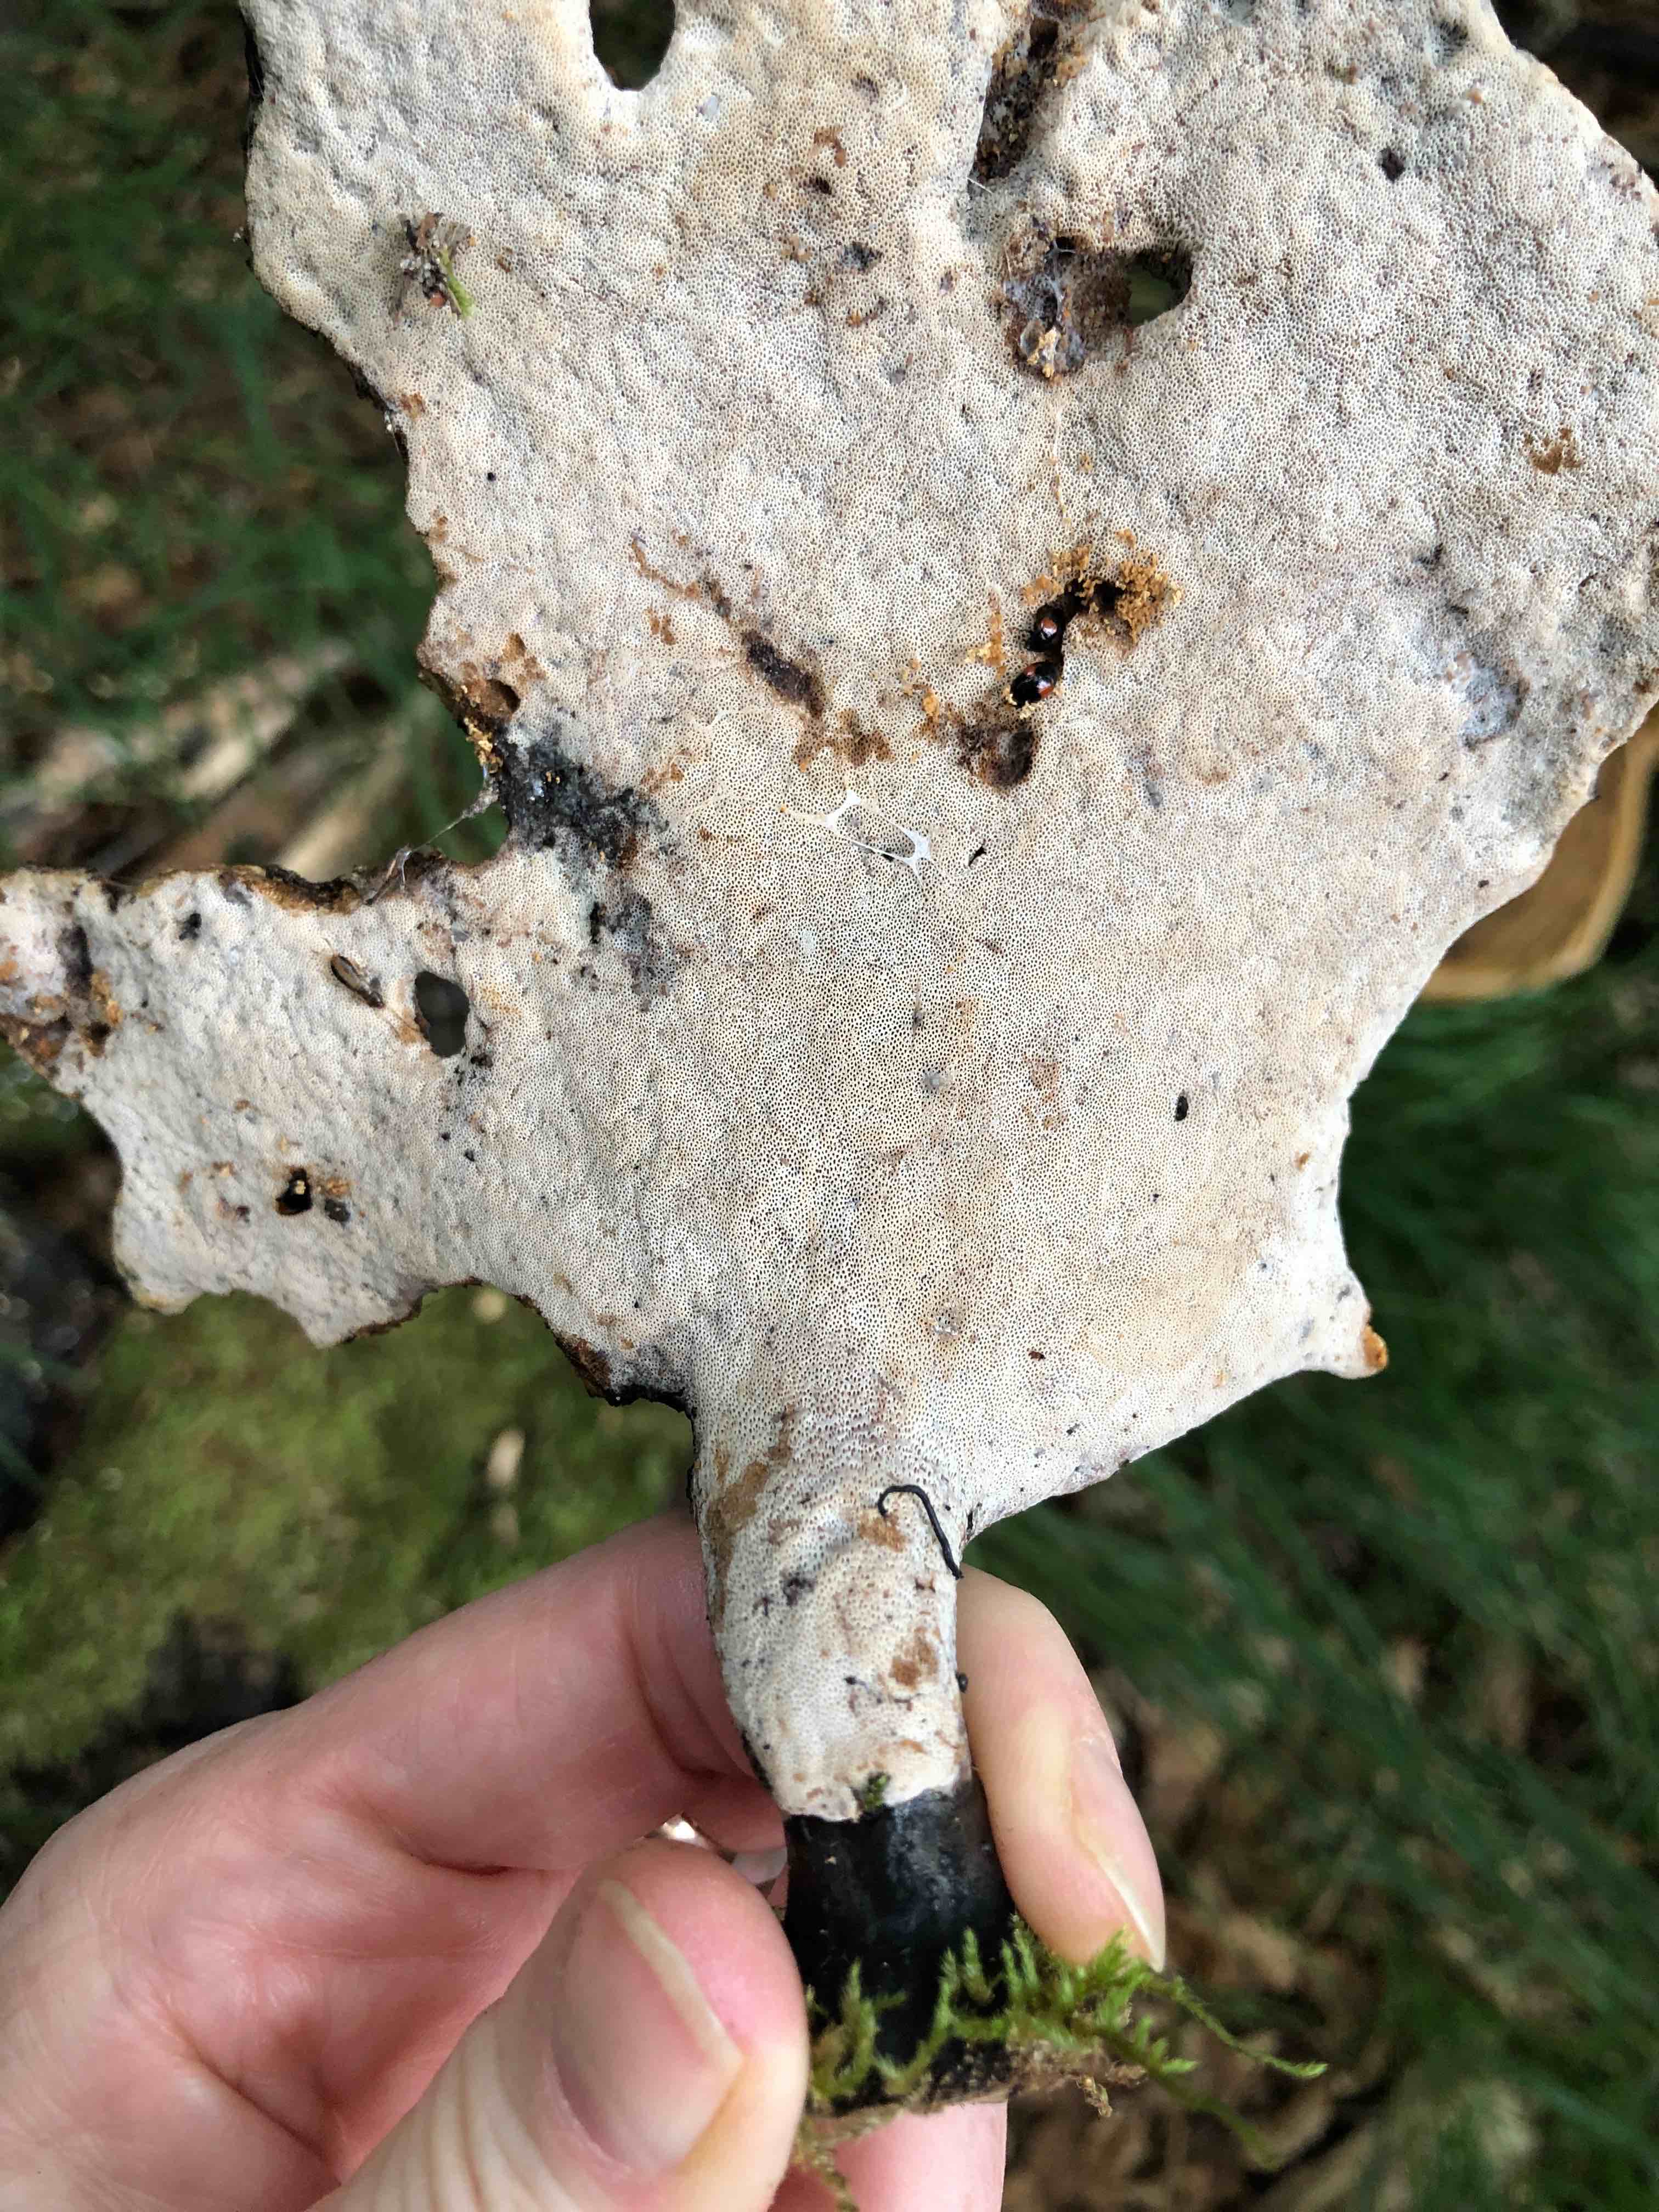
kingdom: Fungi
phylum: Basidiomycota
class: Agaricomycetes
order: Polyporales
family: Polyporaceae
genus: Cerioporus
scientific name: Cerioporus varius
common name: foranderlig stilkporesvamp
